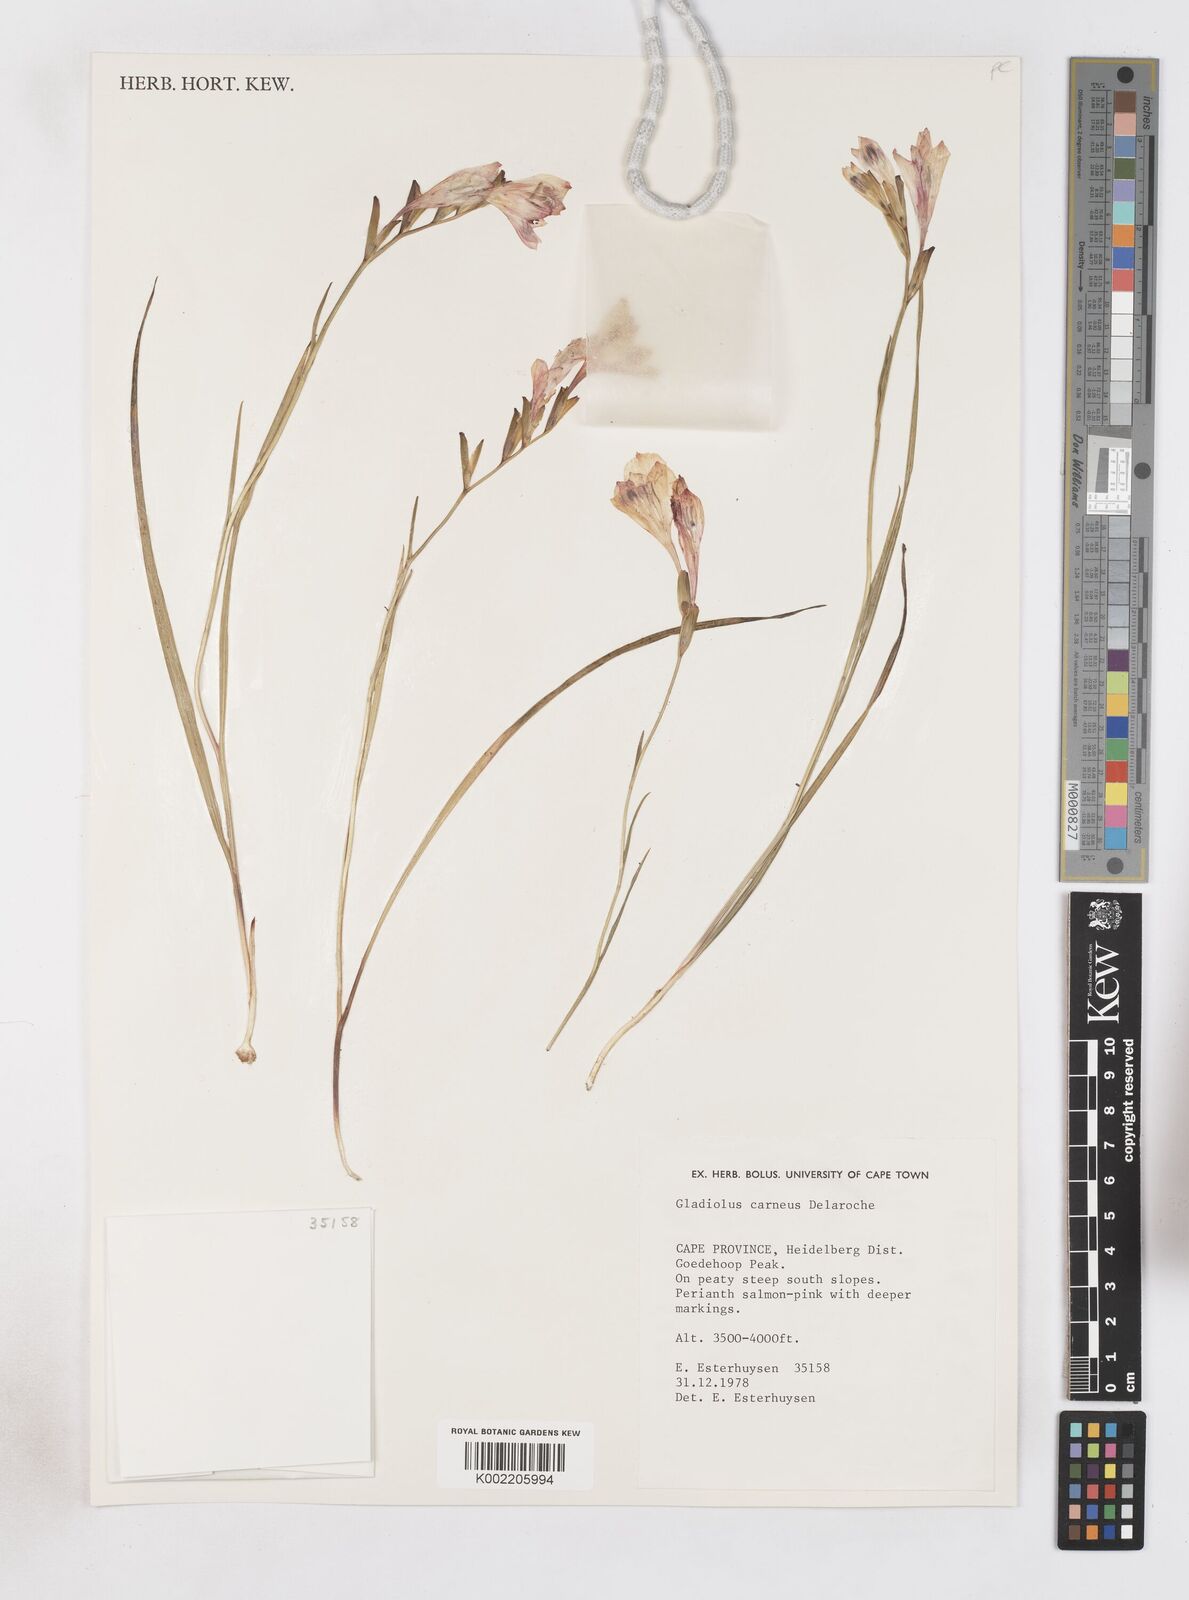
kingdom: Plantae
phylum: Tracheophyta
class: Liliopsida
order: Asparagales
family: Iridaceae
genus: Gladiolus
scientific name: Gladiolus oreocharis
